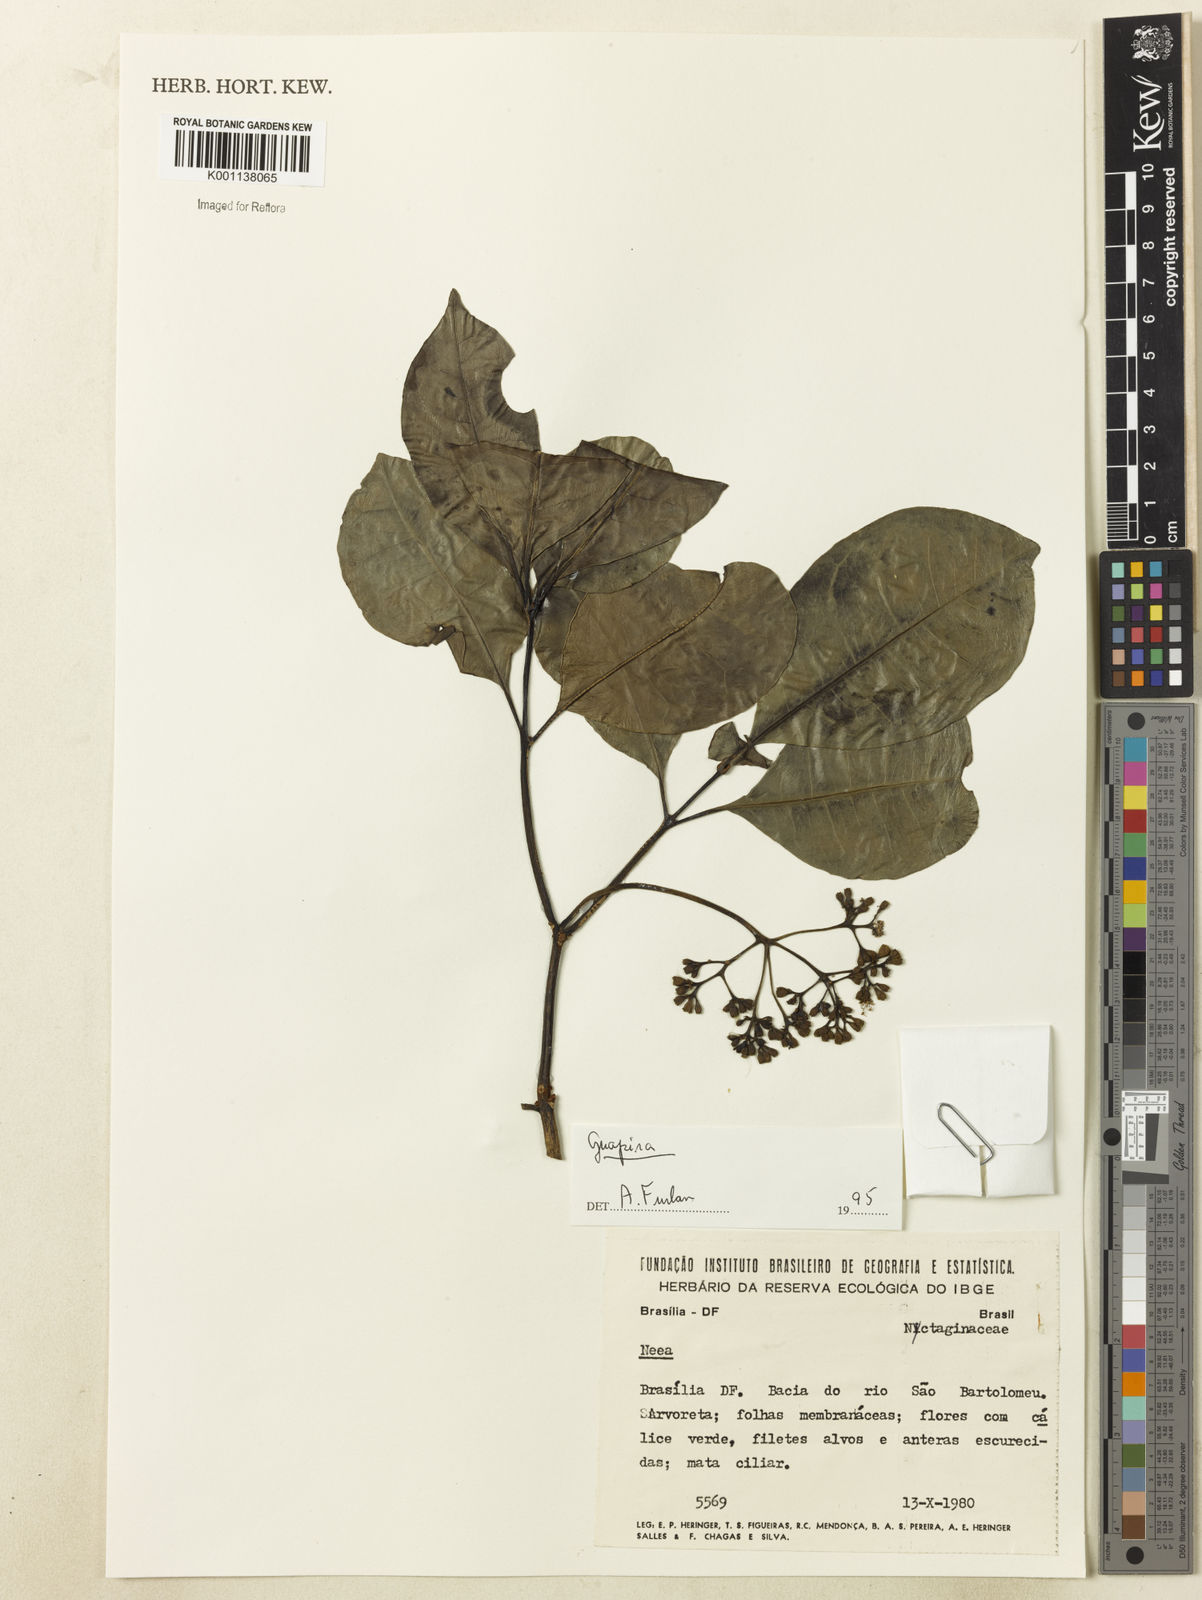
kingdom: Plantae
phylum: Tracheophyta
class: Magnoliopsida
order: Caryophyllales
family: Nyctaginaceae
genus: Neea
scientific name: Neea
